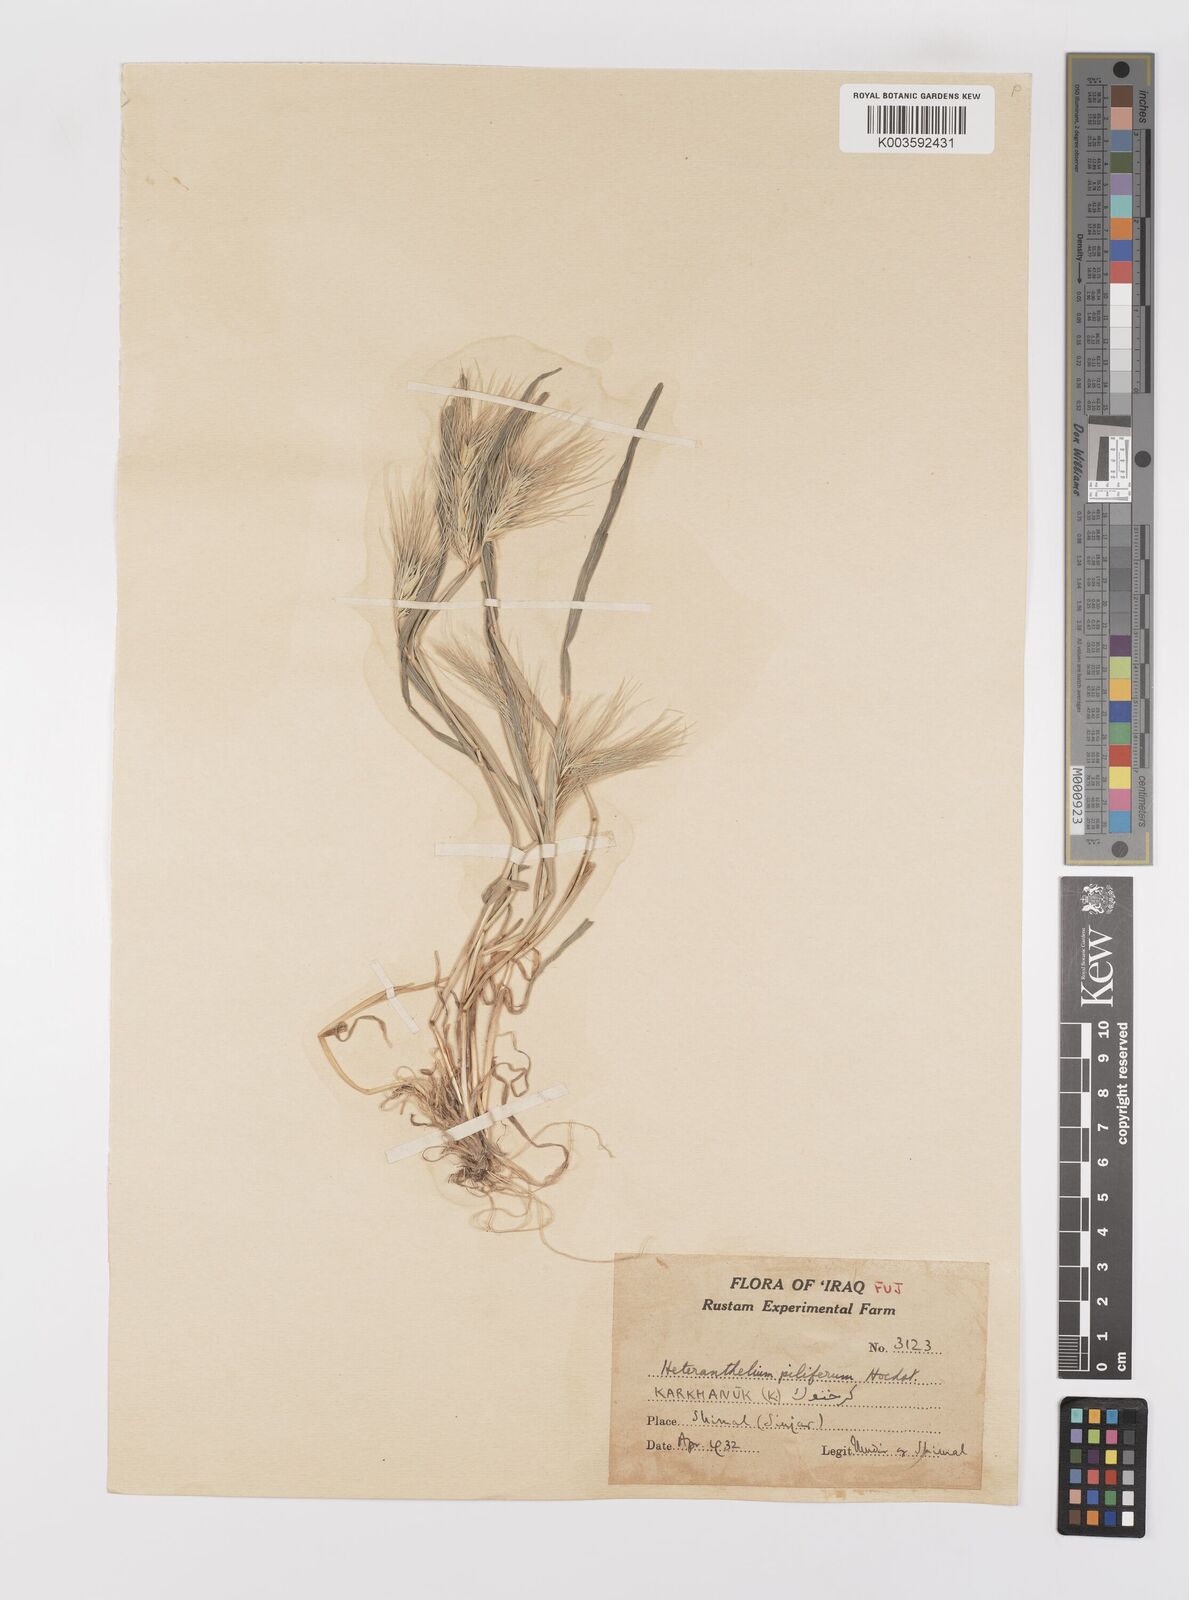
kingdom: Plantae
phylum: Tracheophyta
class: Liliopsida
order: Poales
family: Poaceae
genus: Heteranthelium
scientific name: Heteranthelium piliferum
